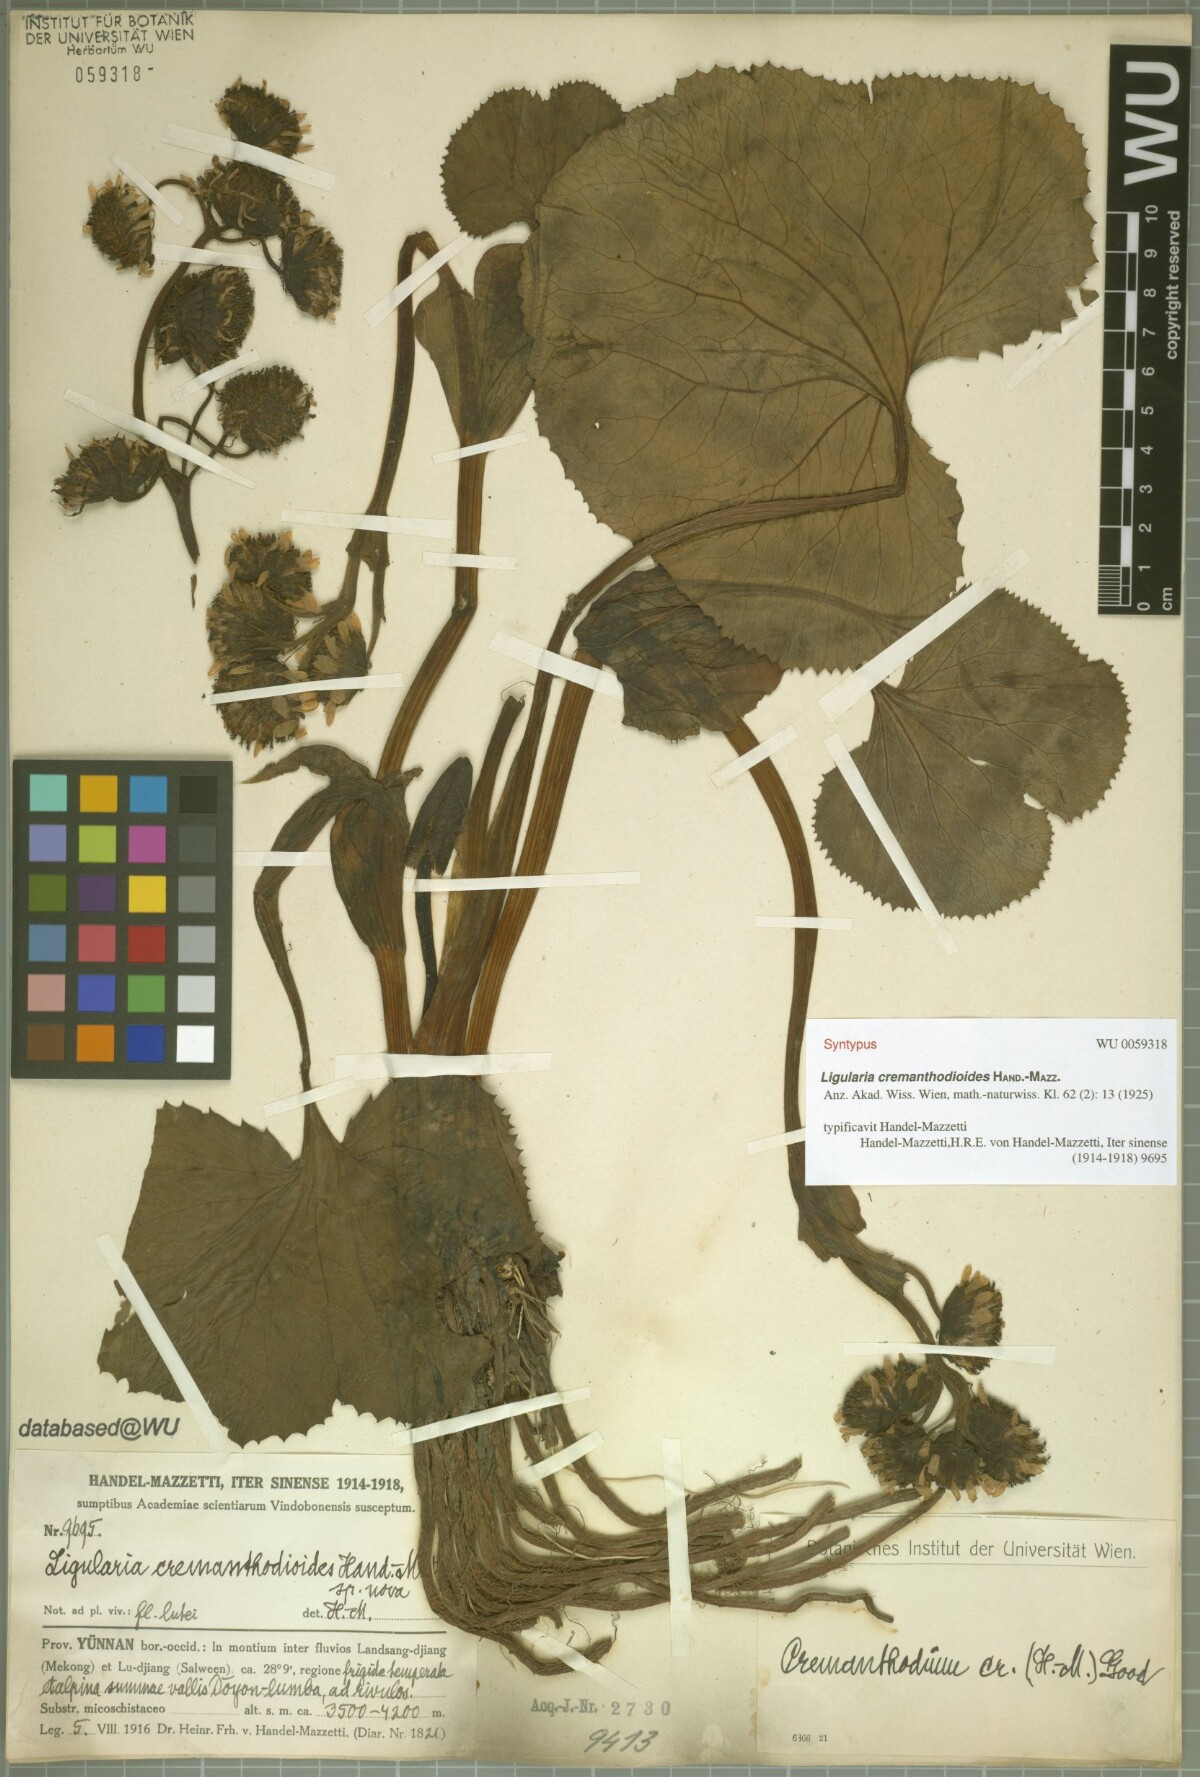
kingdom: Plantae
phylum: Tracheophyta
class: Magnoliopsida
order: Asterales
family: Asteraceae
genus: Ligularia
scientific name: Ligularia cremanthodioides
